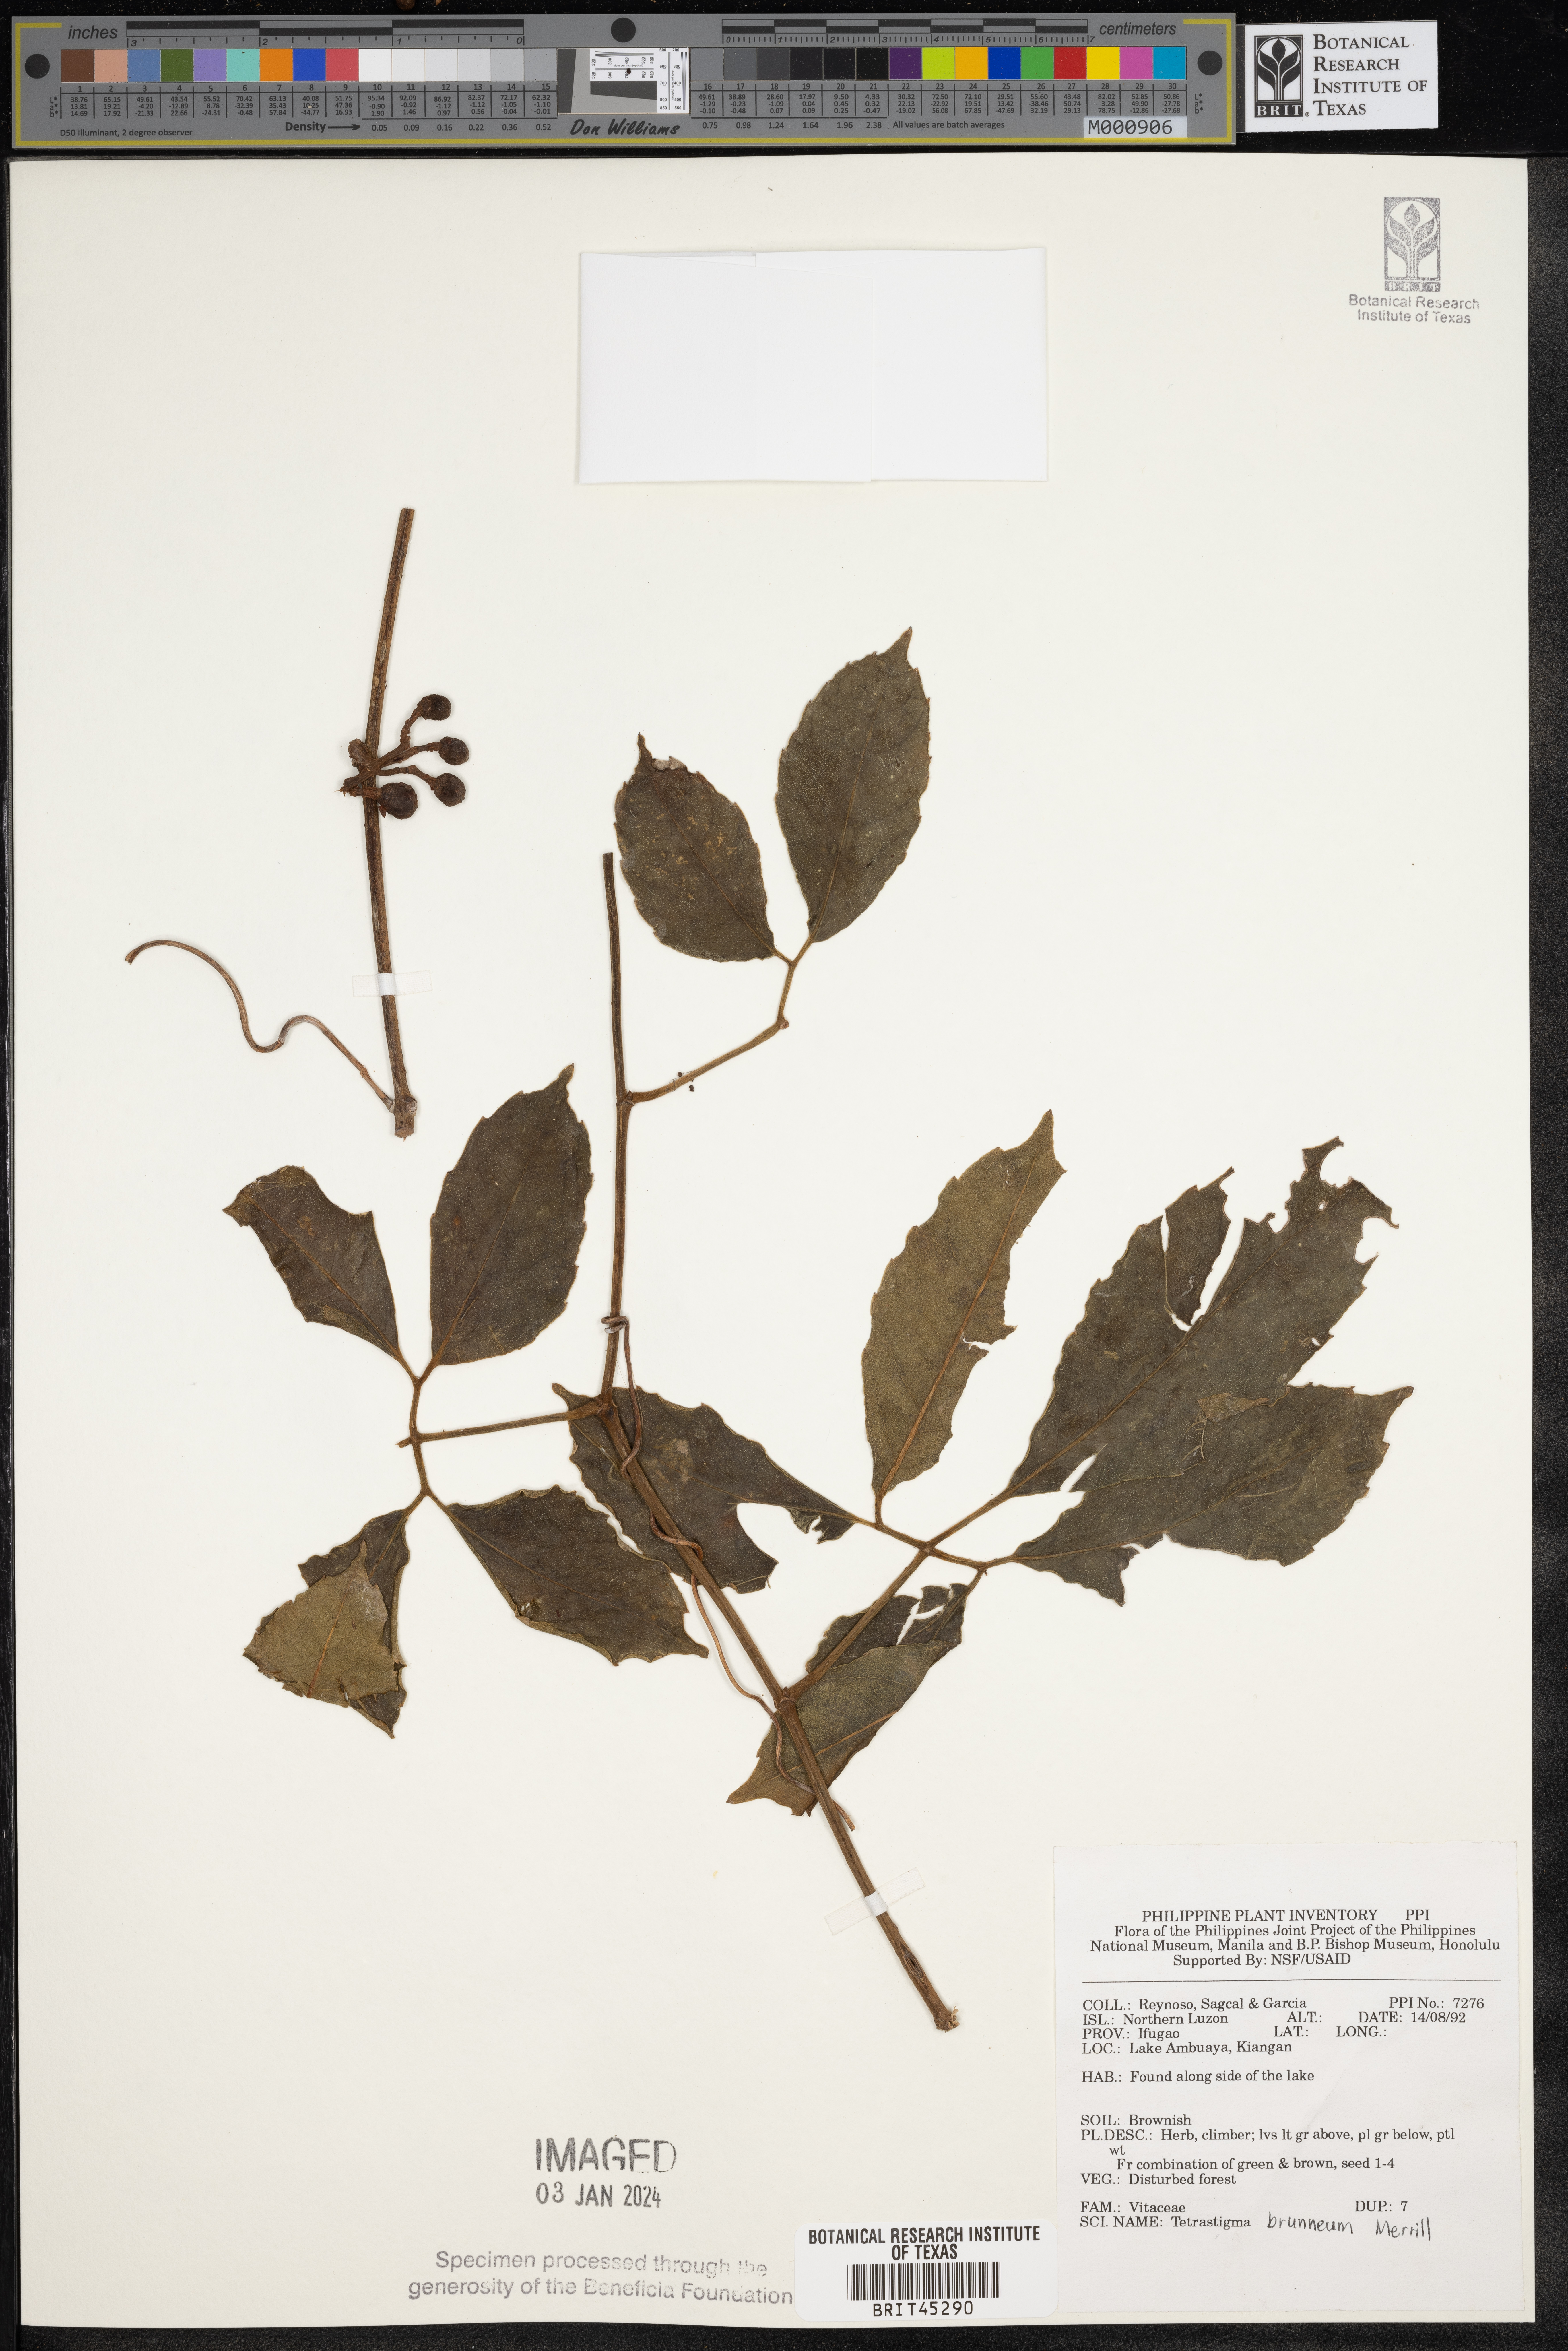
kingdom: Plantae
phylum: Tracheophyta
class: Magnoliopsida
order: Vitales
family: Vitaceae
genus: Tetrastigma
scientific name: Tetrastigma brunneum
